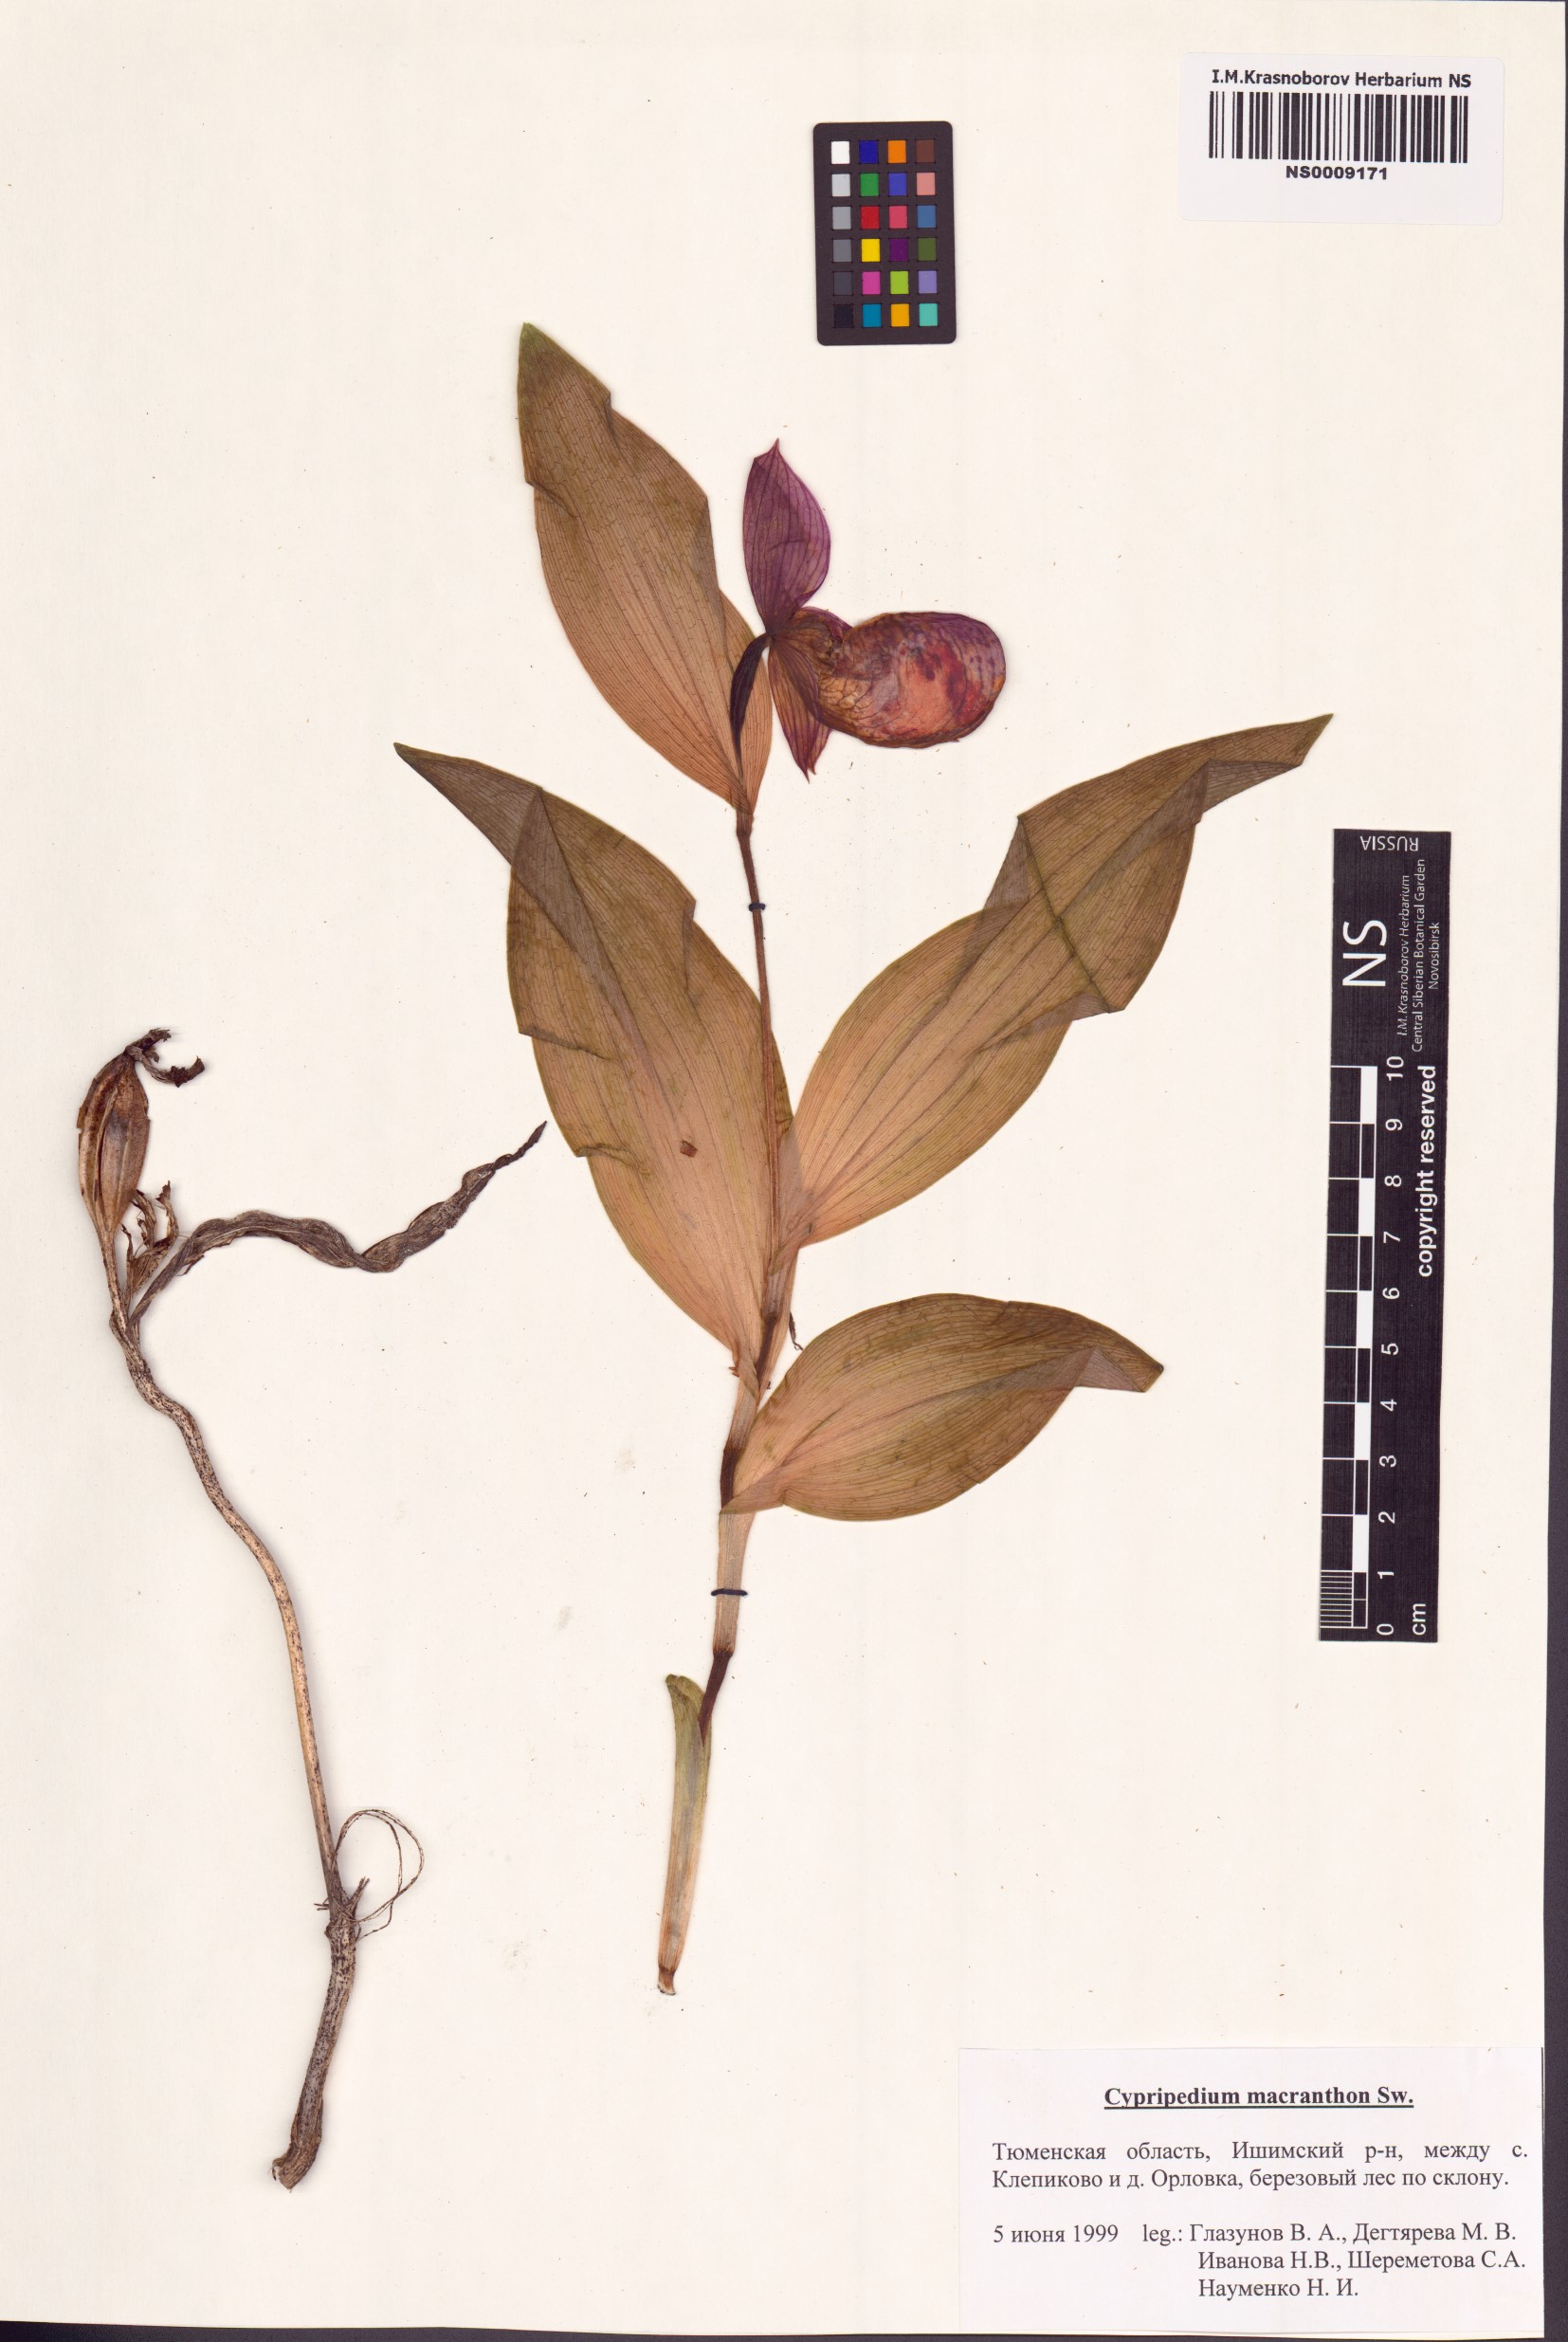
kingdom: Plantae
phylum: Tracheophyta
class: Liliopsida
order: Asparagales
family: Orchidaceae
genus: Cypripedium
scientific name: Cypripedium macranthos
